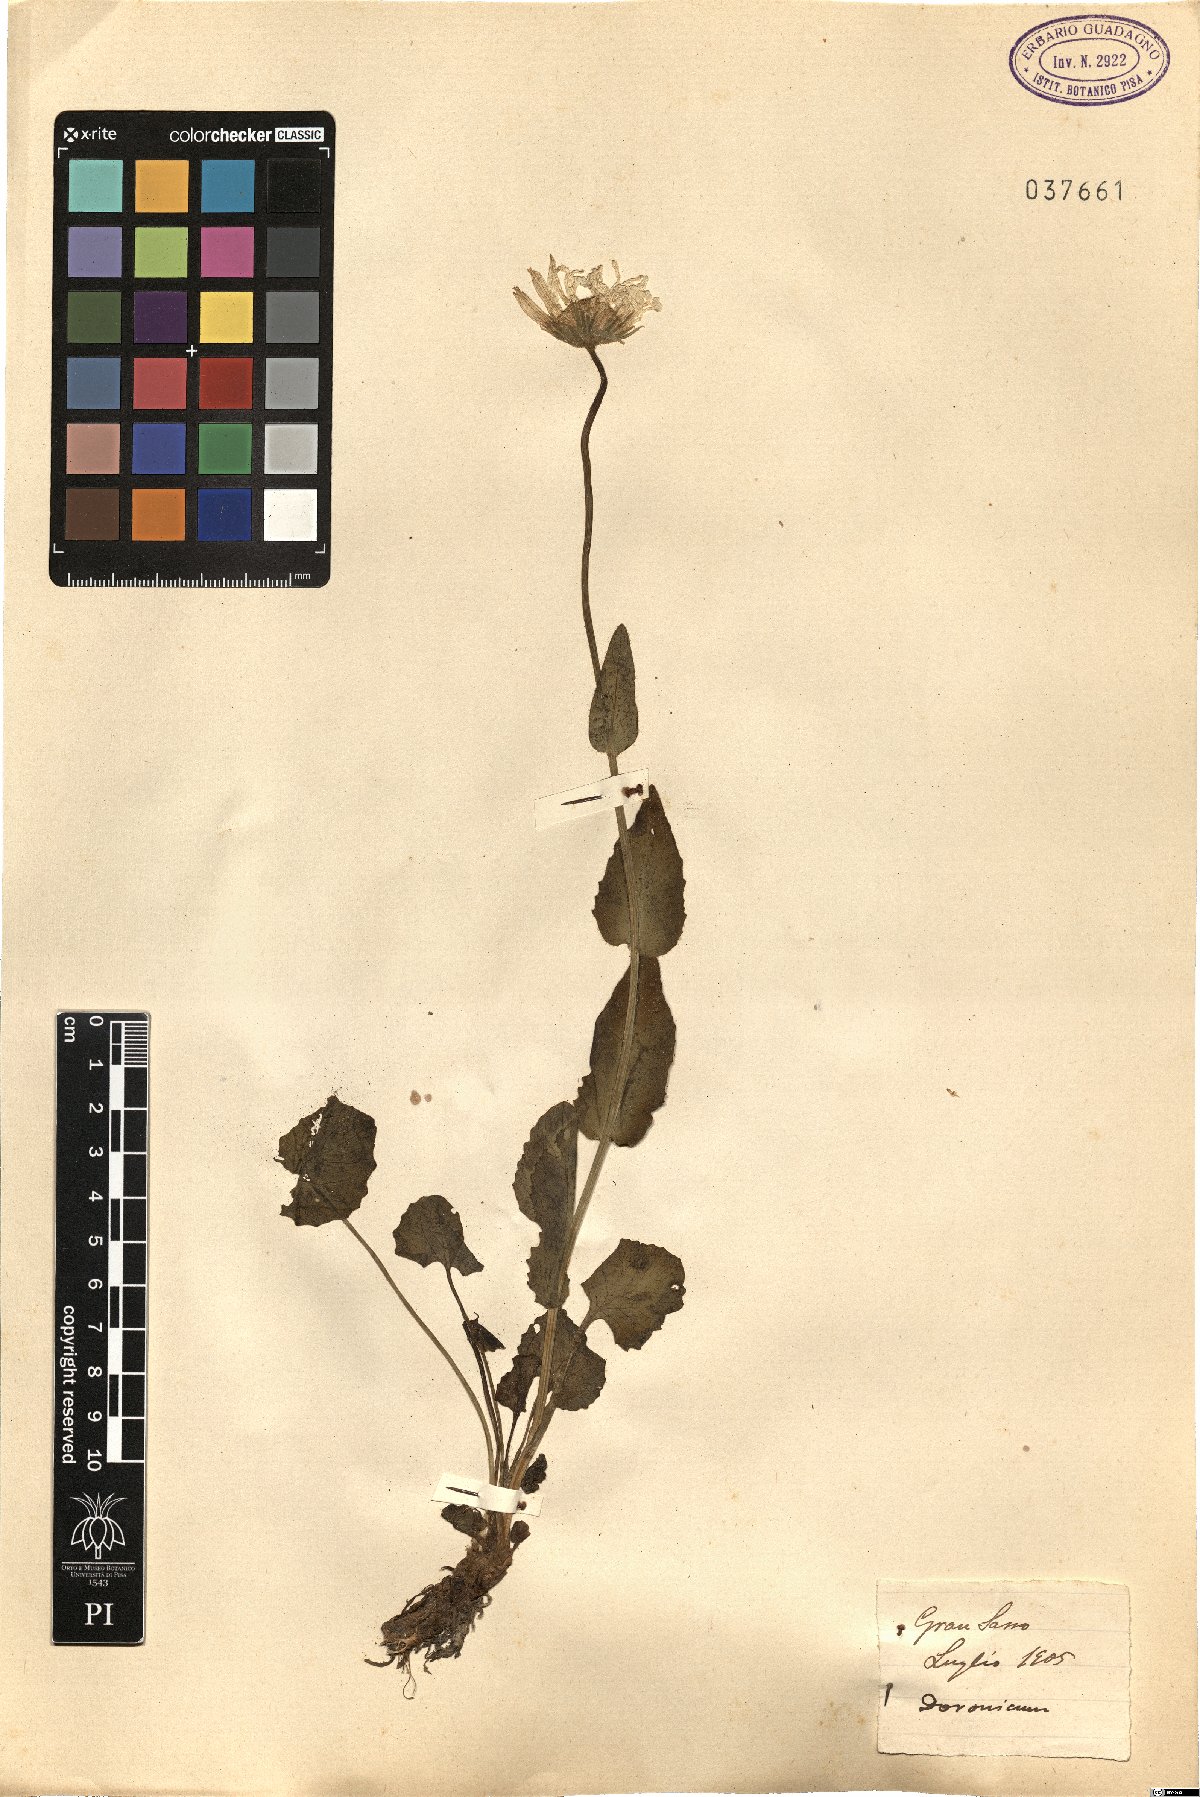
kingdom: Plantae
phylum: Tracheophyta
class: Magnoliopsida
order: Asterales
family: Asteraceae
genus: Doronicum
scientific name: Doronicum
